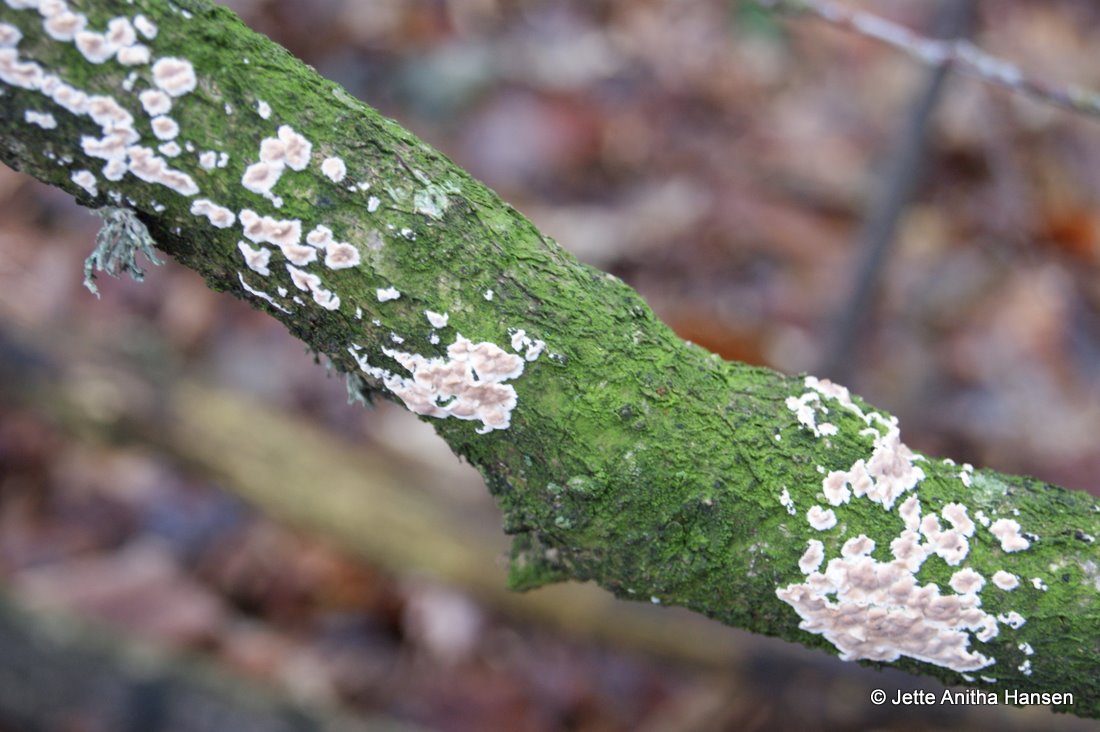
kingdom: Fungi
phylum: Basidiomycota
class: Agaricomycetes
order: Agaricales
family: Physalacriaceae
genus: Cylindrobasidium
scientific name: Cylindrobasidium evolvens
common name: sprækkehinde
